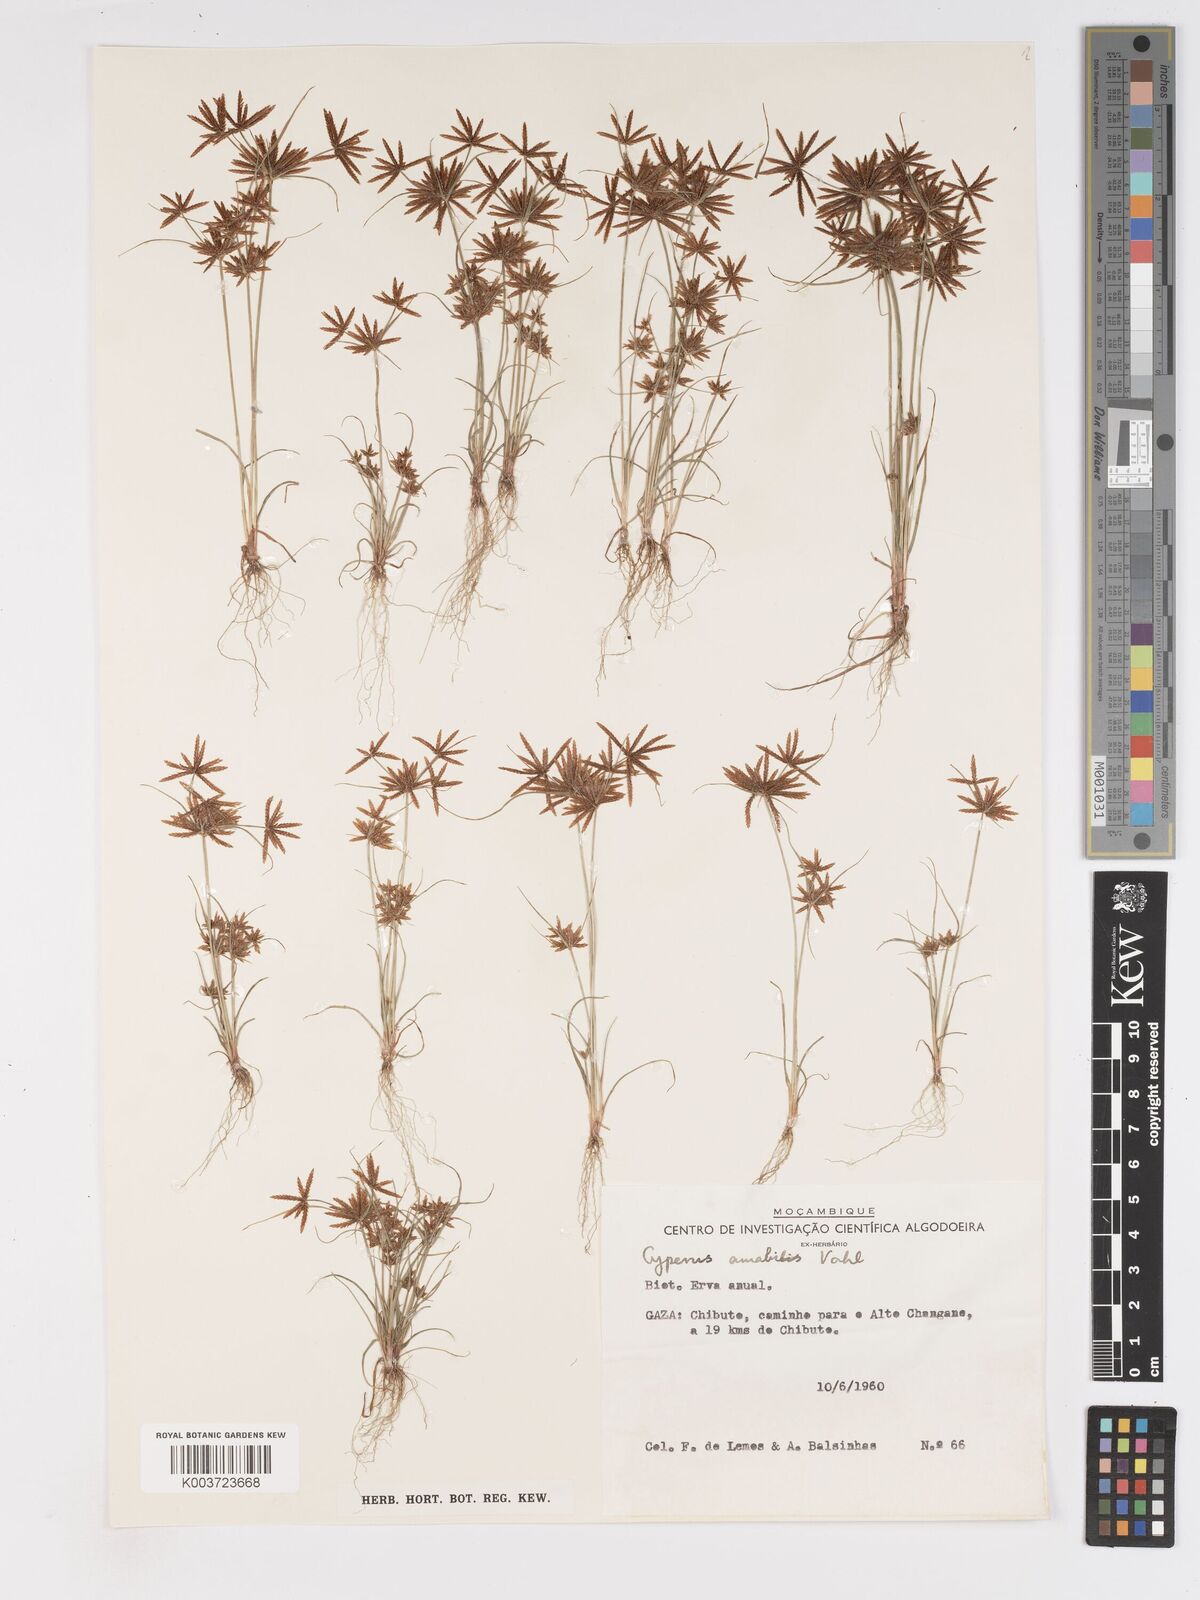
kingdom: Plantae
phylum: Tracheophyta
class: Liliopsida
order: Poales
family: Cyperaceae
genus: Cyperus
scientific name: Cyperus amabilis
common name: Foothill flat sedge
